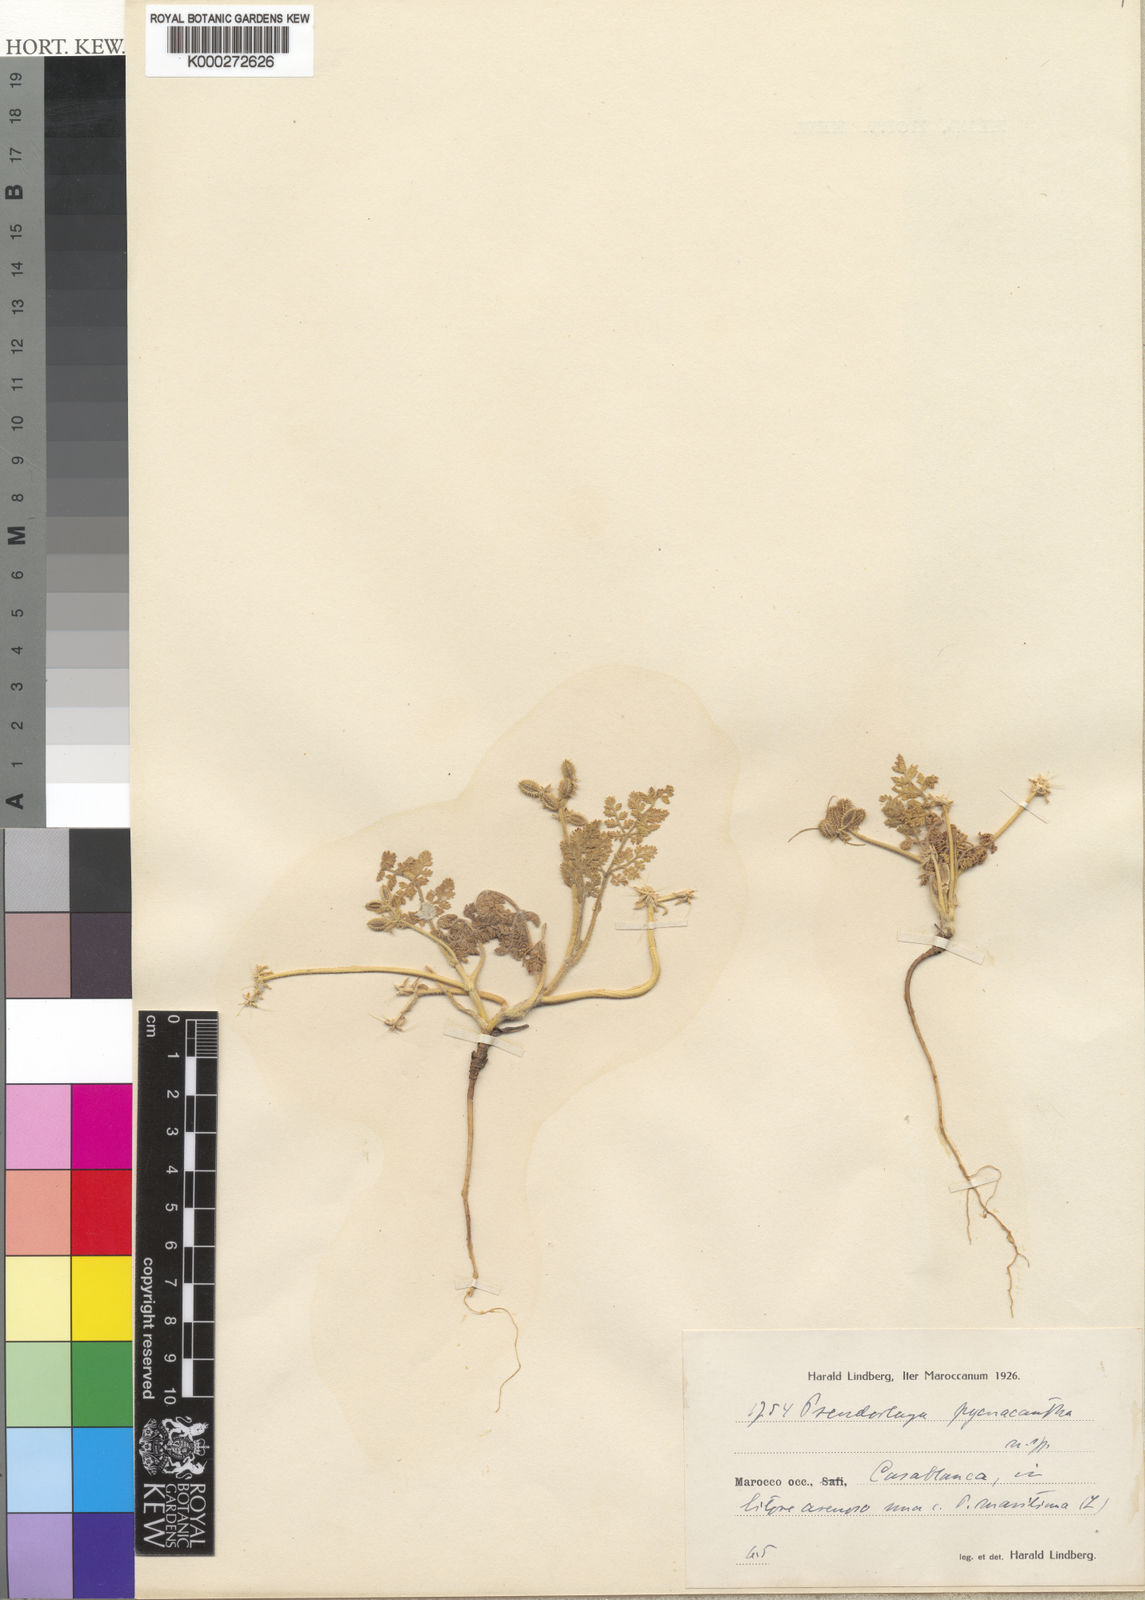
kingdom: Plantae
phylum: Tracheophyta
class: Magnoliopsida
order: Apiales
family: Apiaceae
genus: Daucus
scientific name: Daucus pumilus
